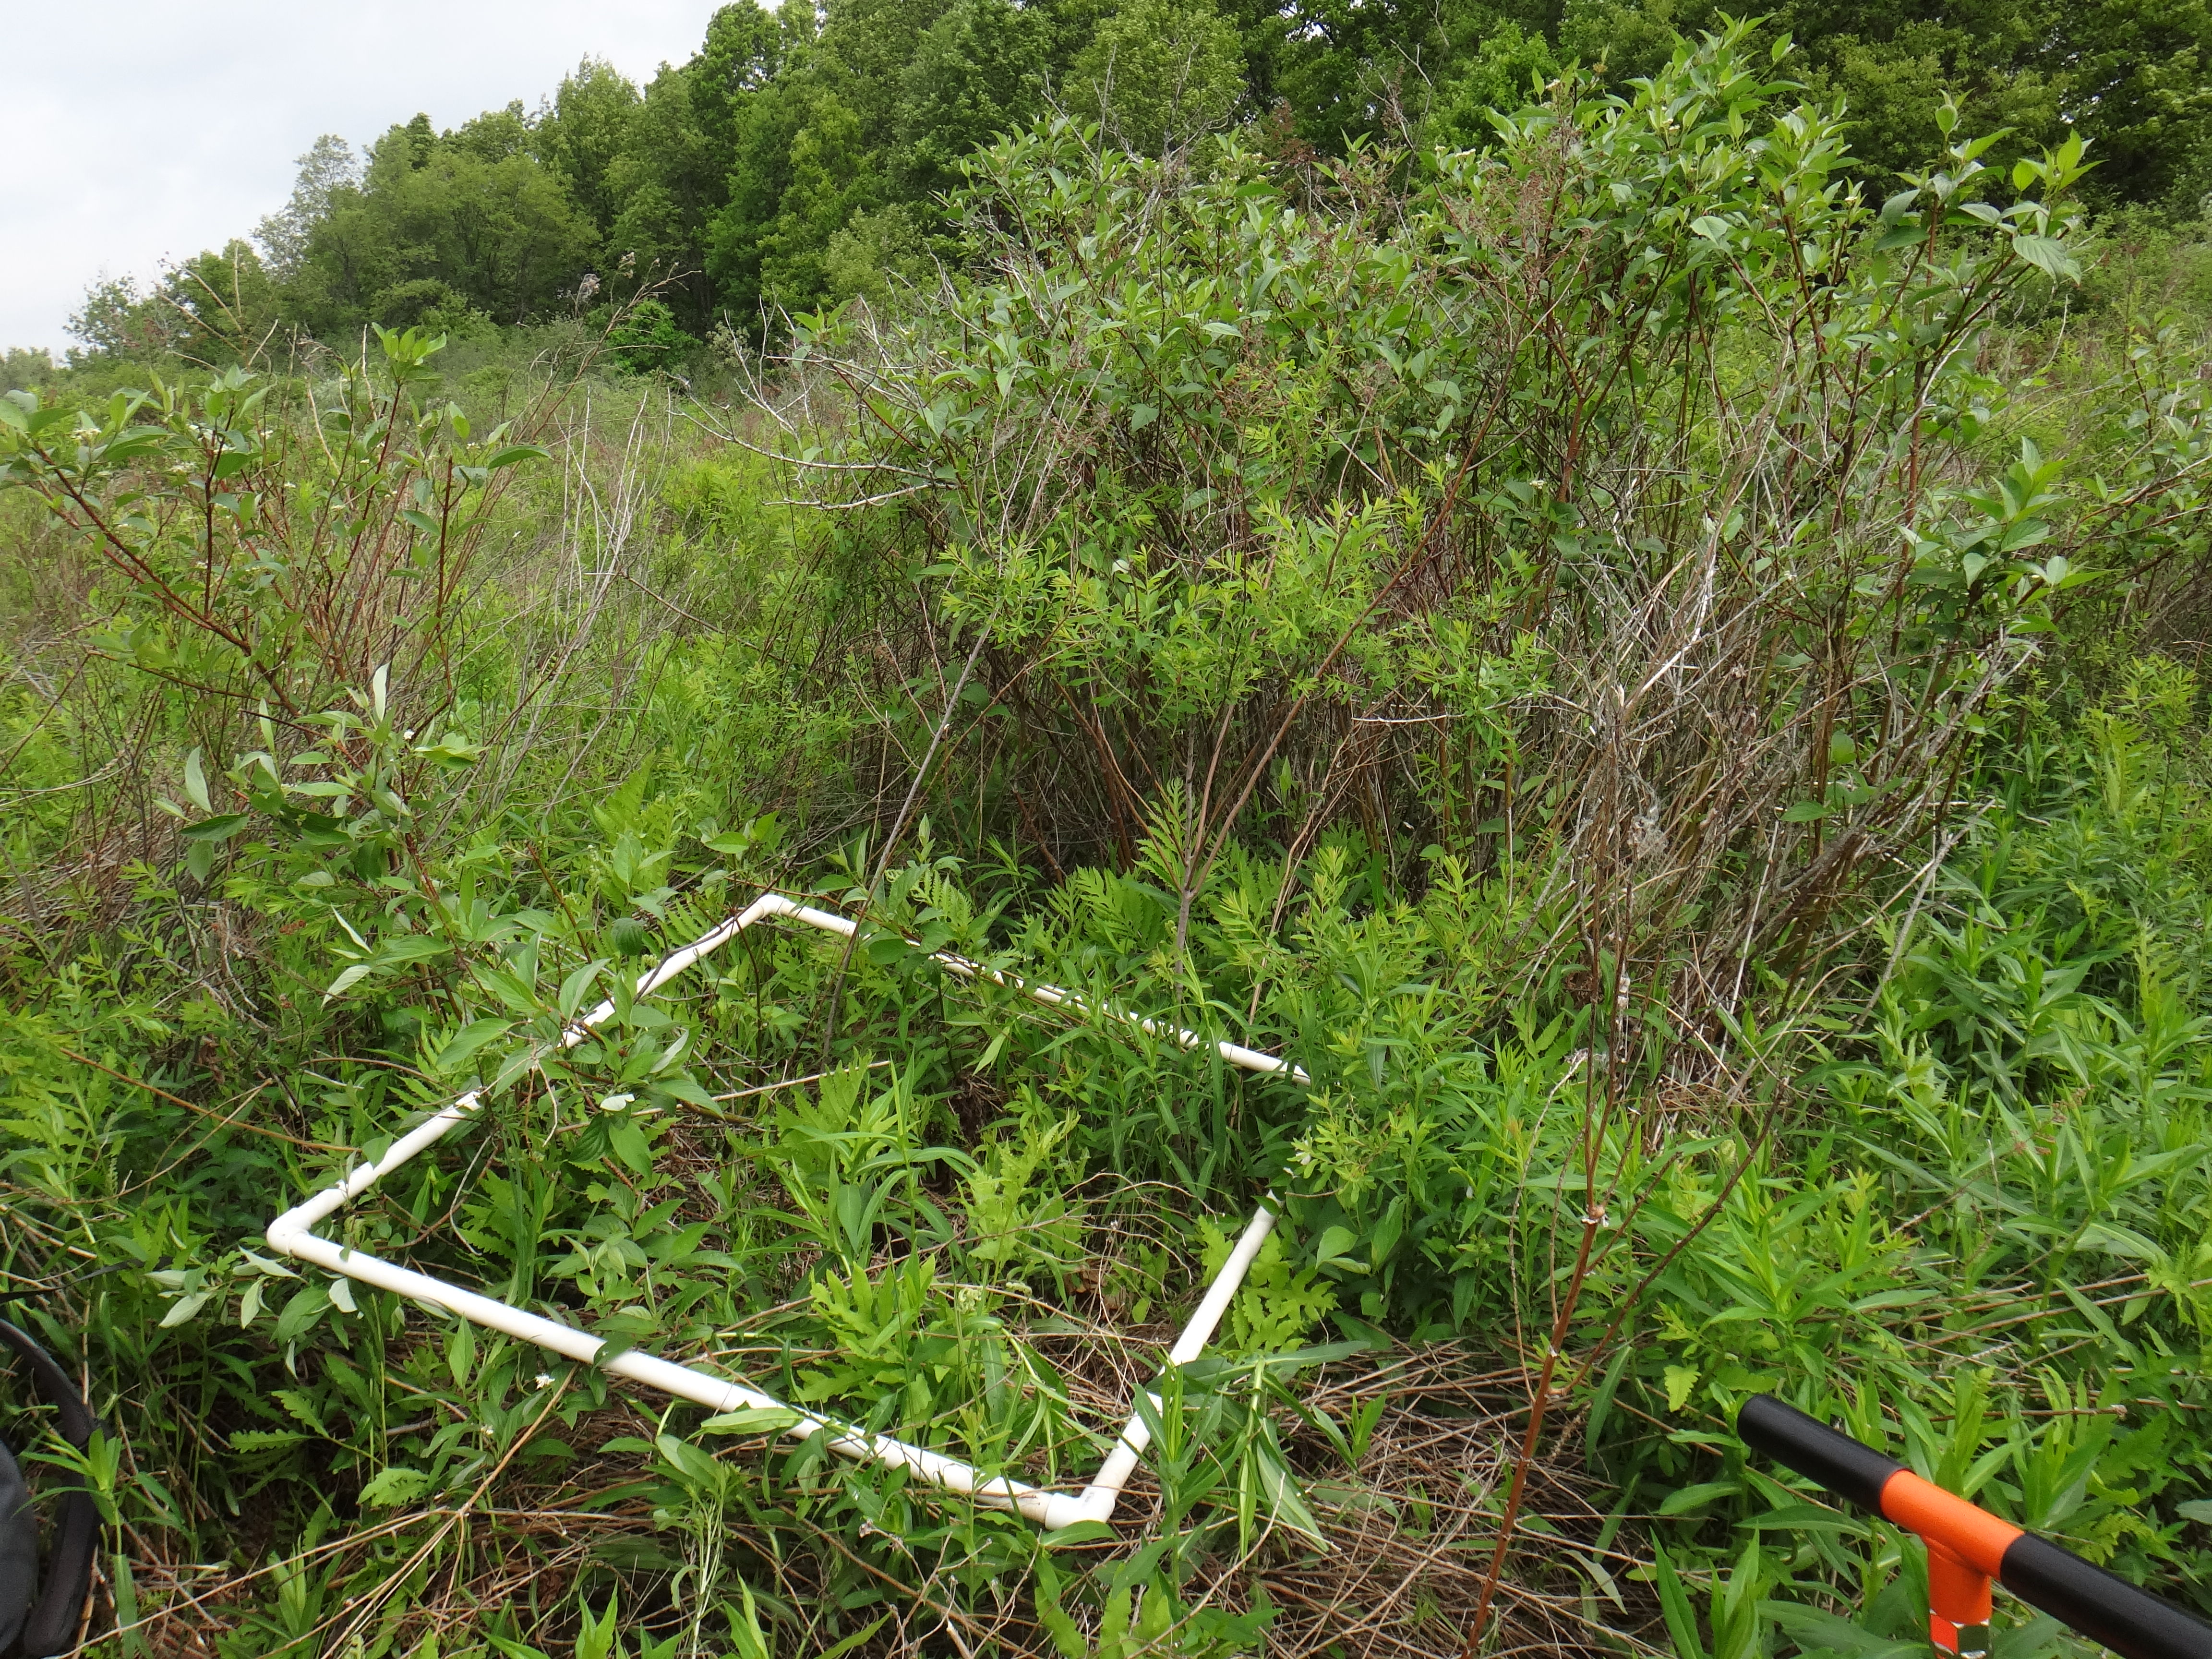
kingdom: Plantae
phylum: Tracheophyta
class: Magnoliopsida
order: Rosales
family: Rosaceae
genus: Spiraea
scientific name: Spiraea alba
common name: Pale bridewort
